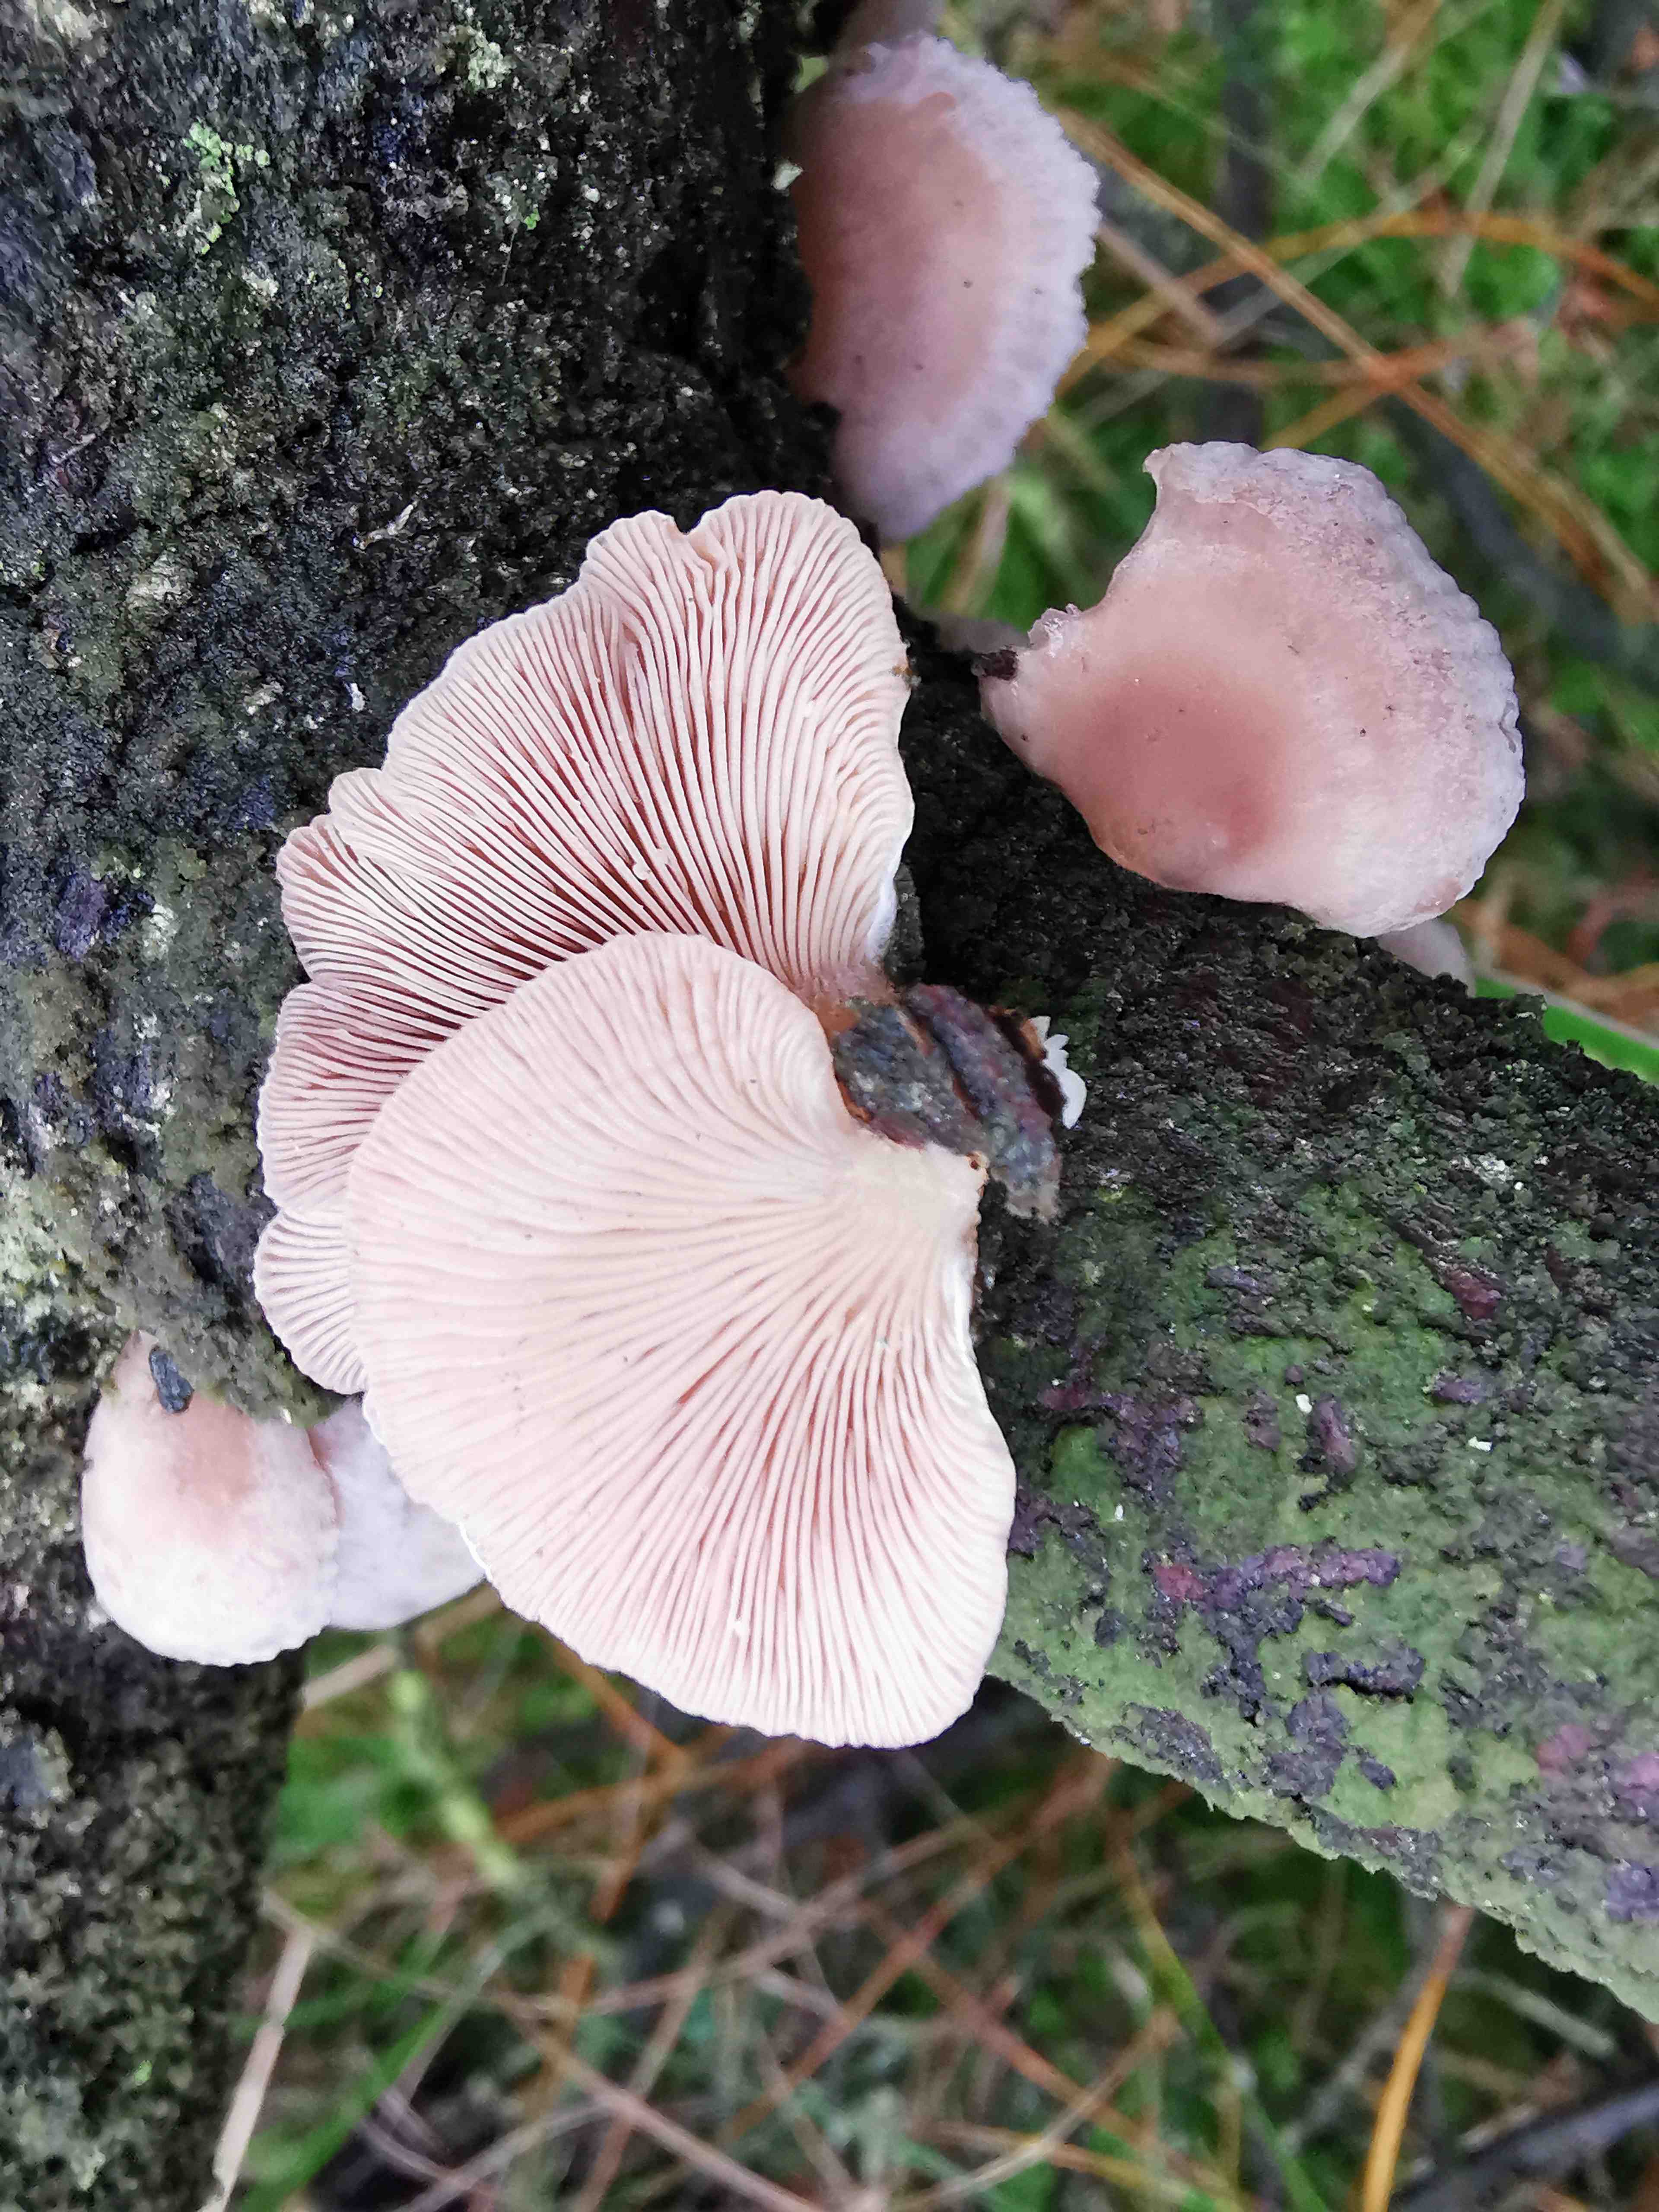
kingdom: Fungi
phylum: Basidiomycota
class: Agaricomycetes
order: Agaricales
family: Mycenaceae
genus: Panellus
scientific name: Panellus mitis
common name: mild epaulethat
